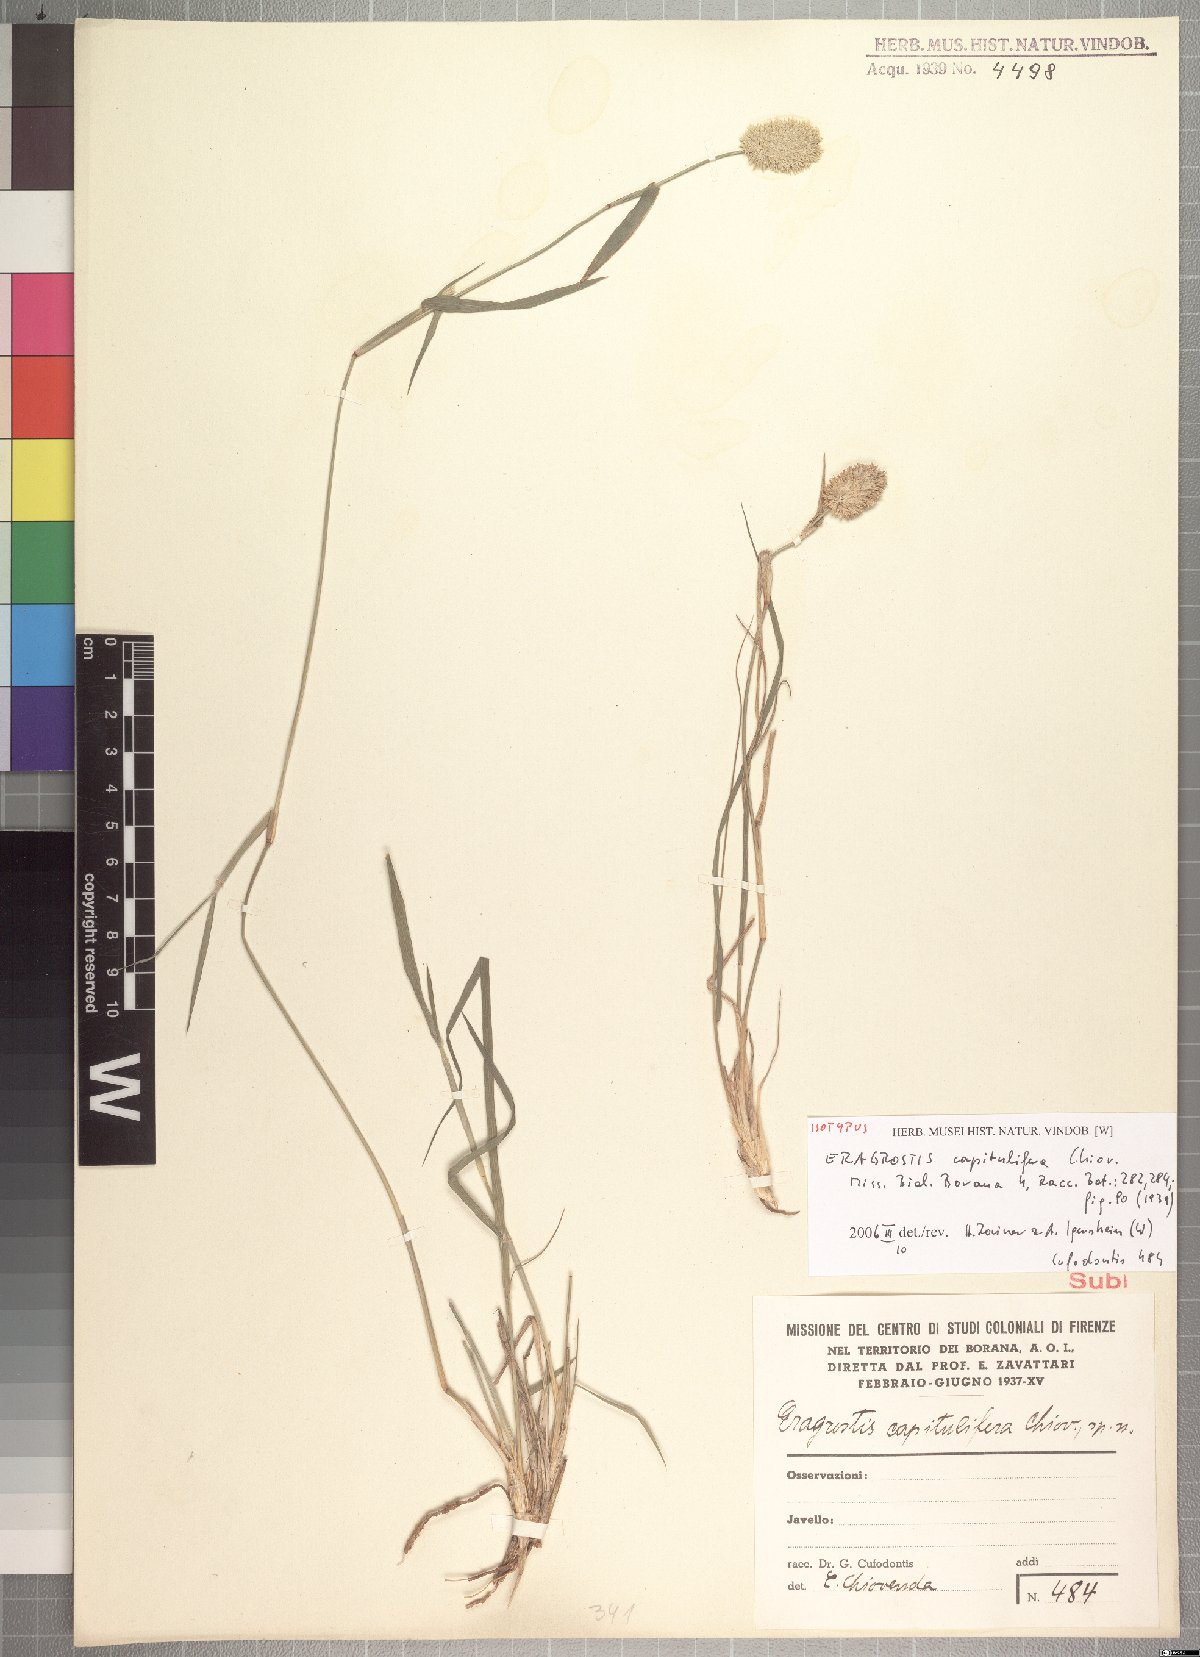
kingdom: Plantae
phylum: Tracheophyta
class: Liliopsida
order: Poales
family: Poaceae
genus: Eragrostis
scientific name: Eragrostis capitulifera
